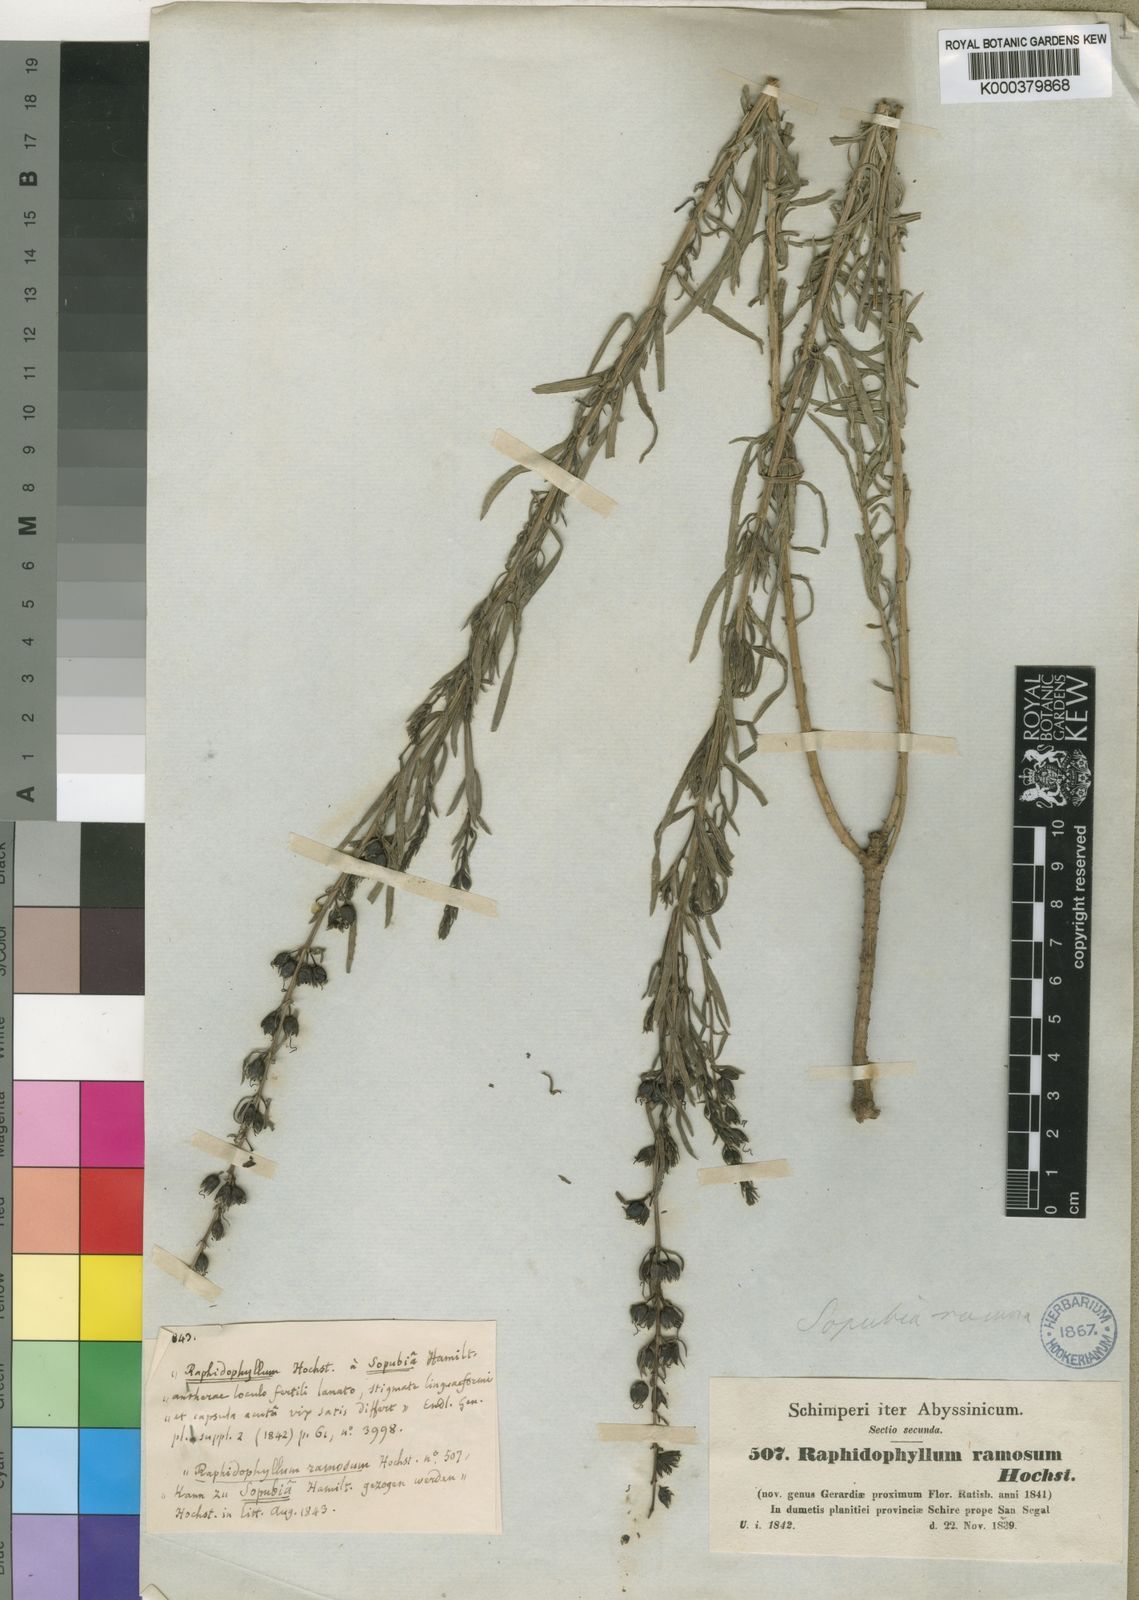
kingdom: Plantae
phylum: Tracheophyta
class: Magnoliopsida
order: Lamiales
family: Orobanchaceae
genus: Sopubia
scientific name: Sopubia ramosa
